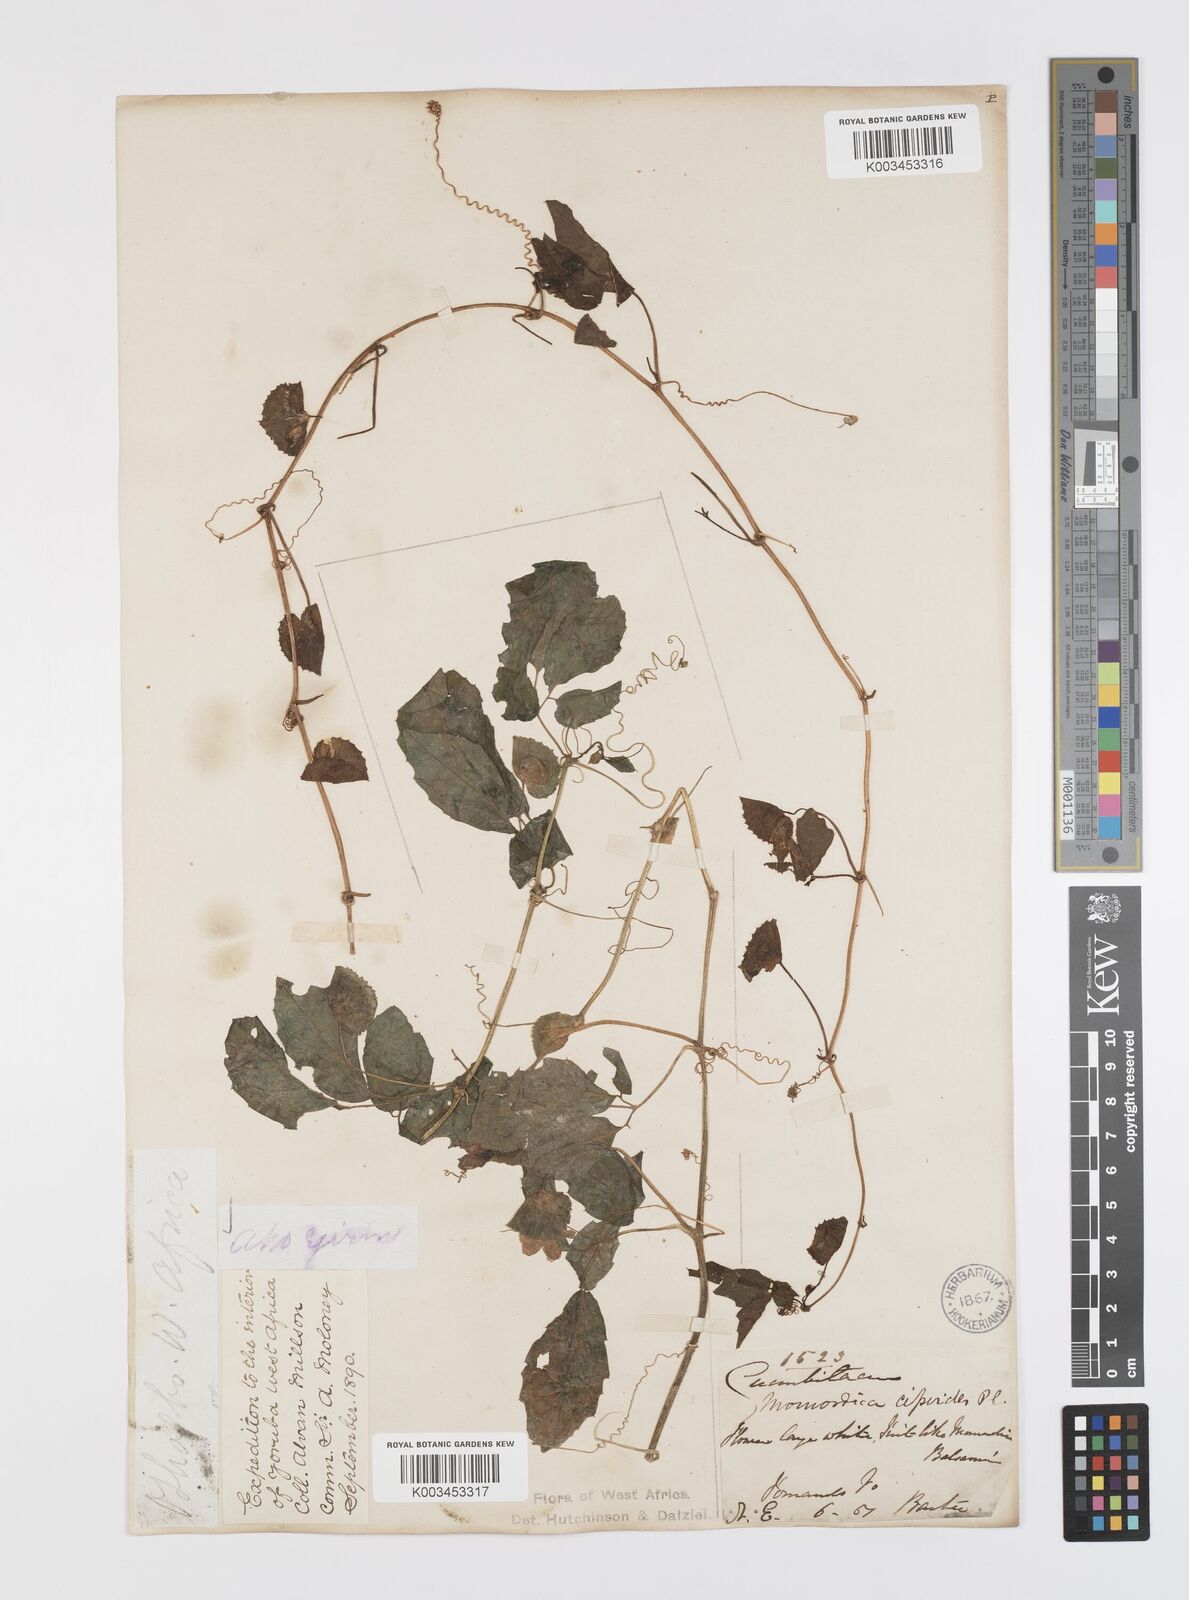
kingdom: Plantae
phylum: Tracheophyta
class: Magnoliopsida
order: Cucurbitales
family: Cucurbitaceae
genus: Momordica
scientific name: Momordica cissoides
